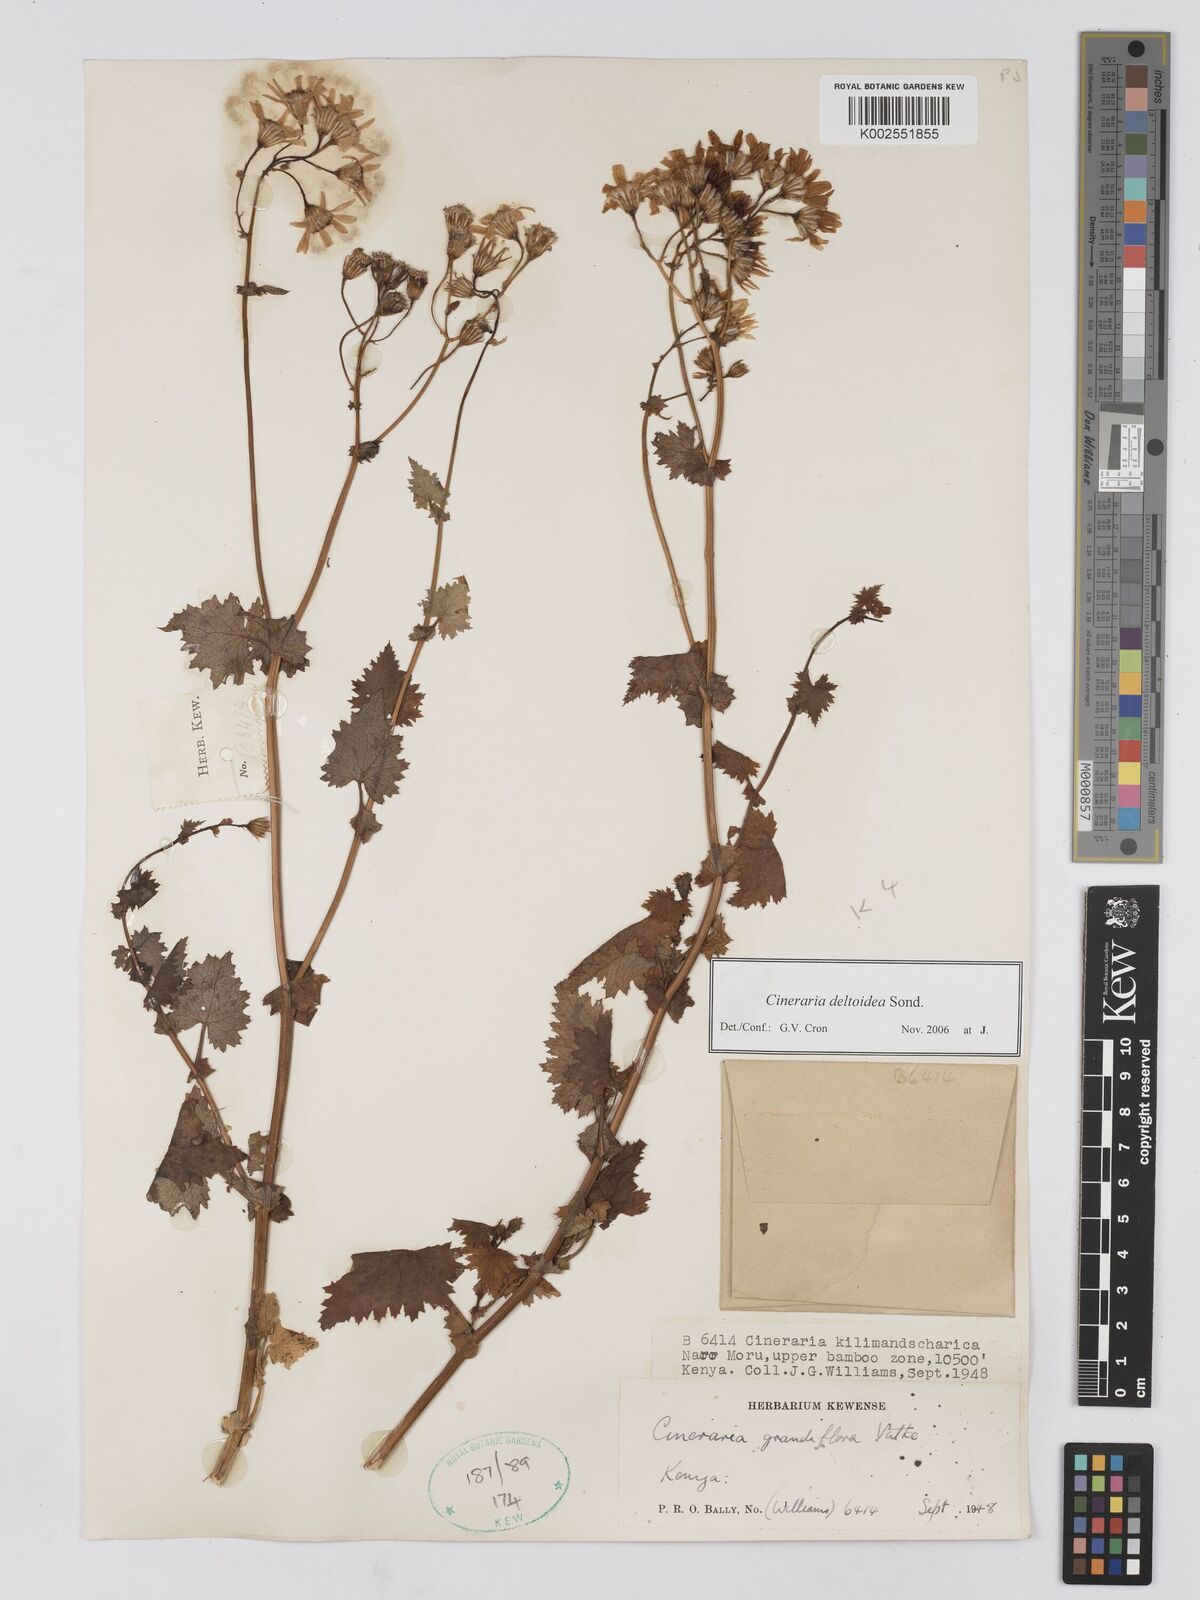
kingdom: Plantae
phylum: Tracheophyta
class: Magnoliopsida
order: Asterales
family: Asteraceae
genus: Cineraria
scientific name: Cineraria deltoidea
